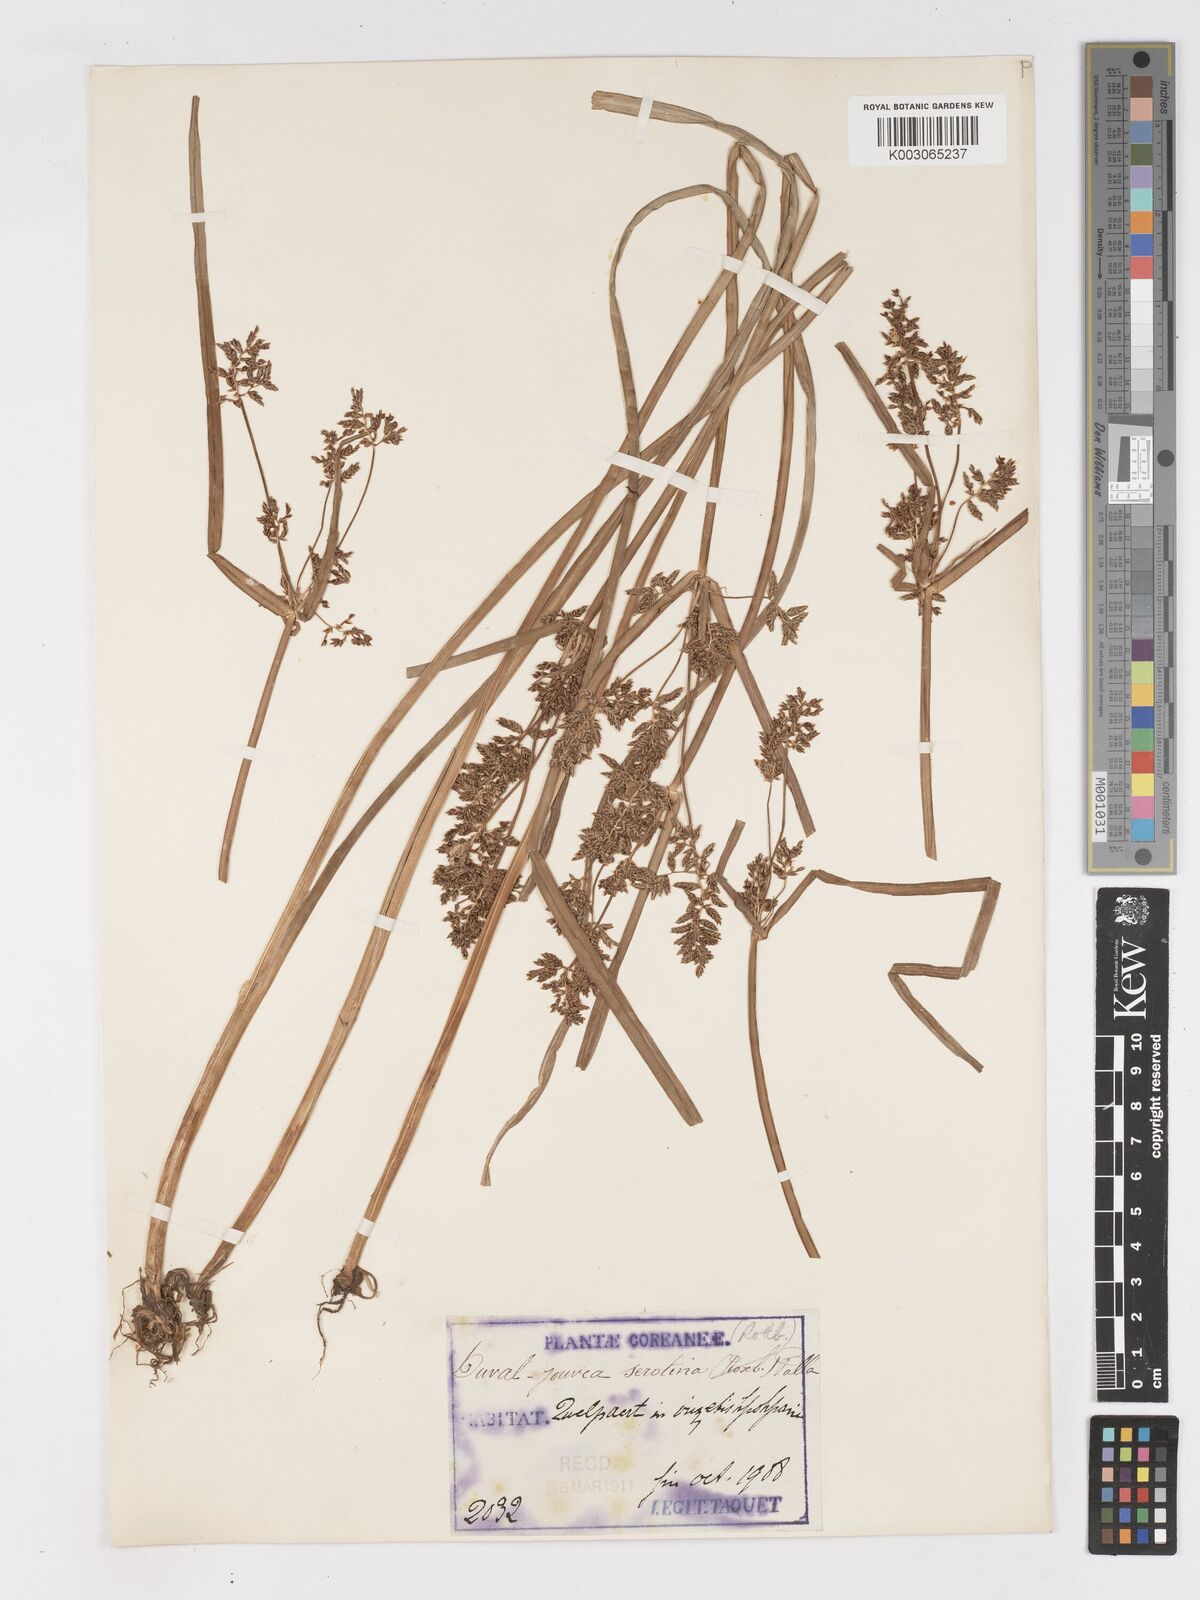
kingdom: Plantae
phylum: Tracheophyta
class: Liliopsida
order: Poales
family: Cyperaceae
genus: Cyperus
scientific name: Cyperus serotinus
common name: Tidalmarsh flatsedge
